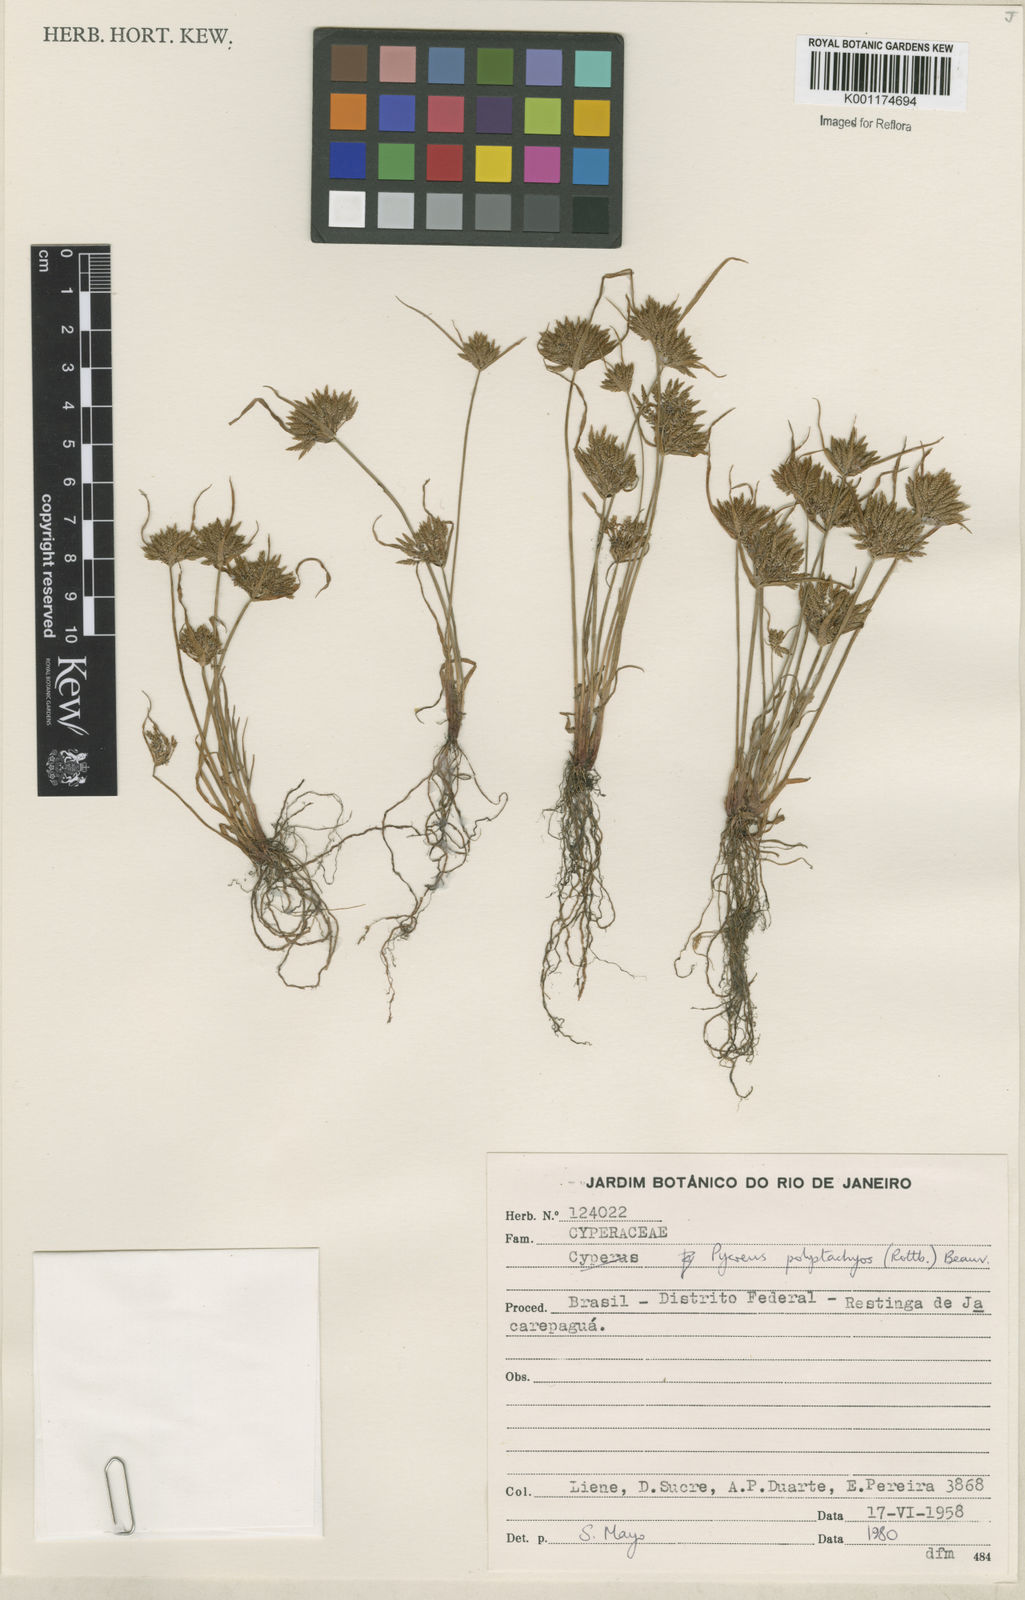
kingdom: Plantae
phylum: Tracheophyta
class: Liliopsida
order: Poales
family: Cyperaceae
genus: Cyperus
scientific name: Cyperus polystachyos
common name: Bunchy flat sedge
